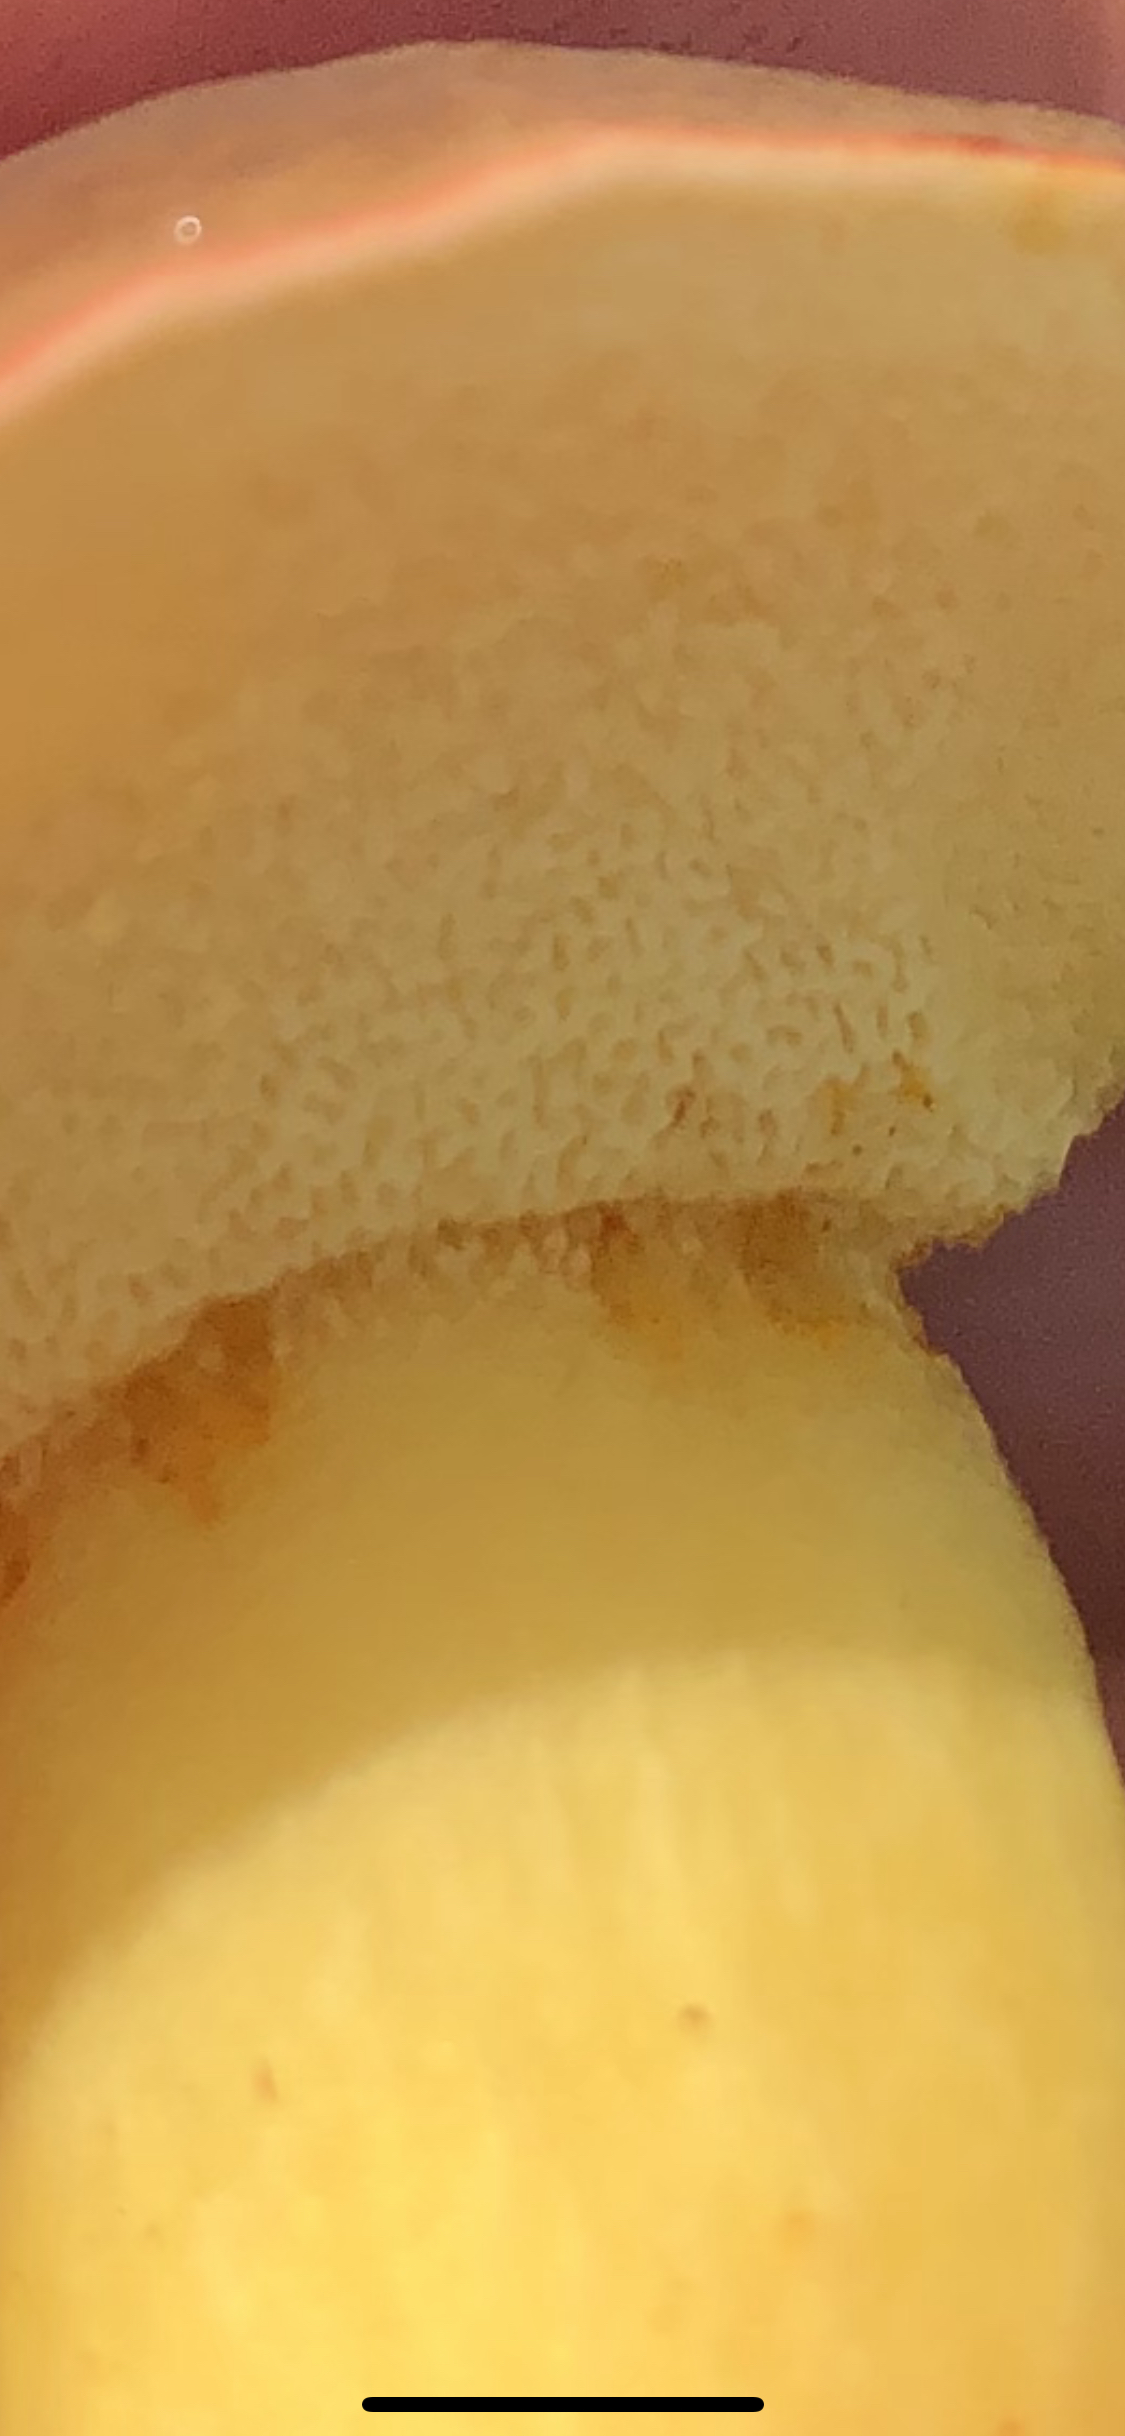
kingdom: Fungi
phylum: Basidiomycota
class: Agaricomycetes
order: Boletales
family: Boletaceae
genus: Xerocomellus
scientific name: Xerocomellus pruinatus
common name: dugget rørhat
